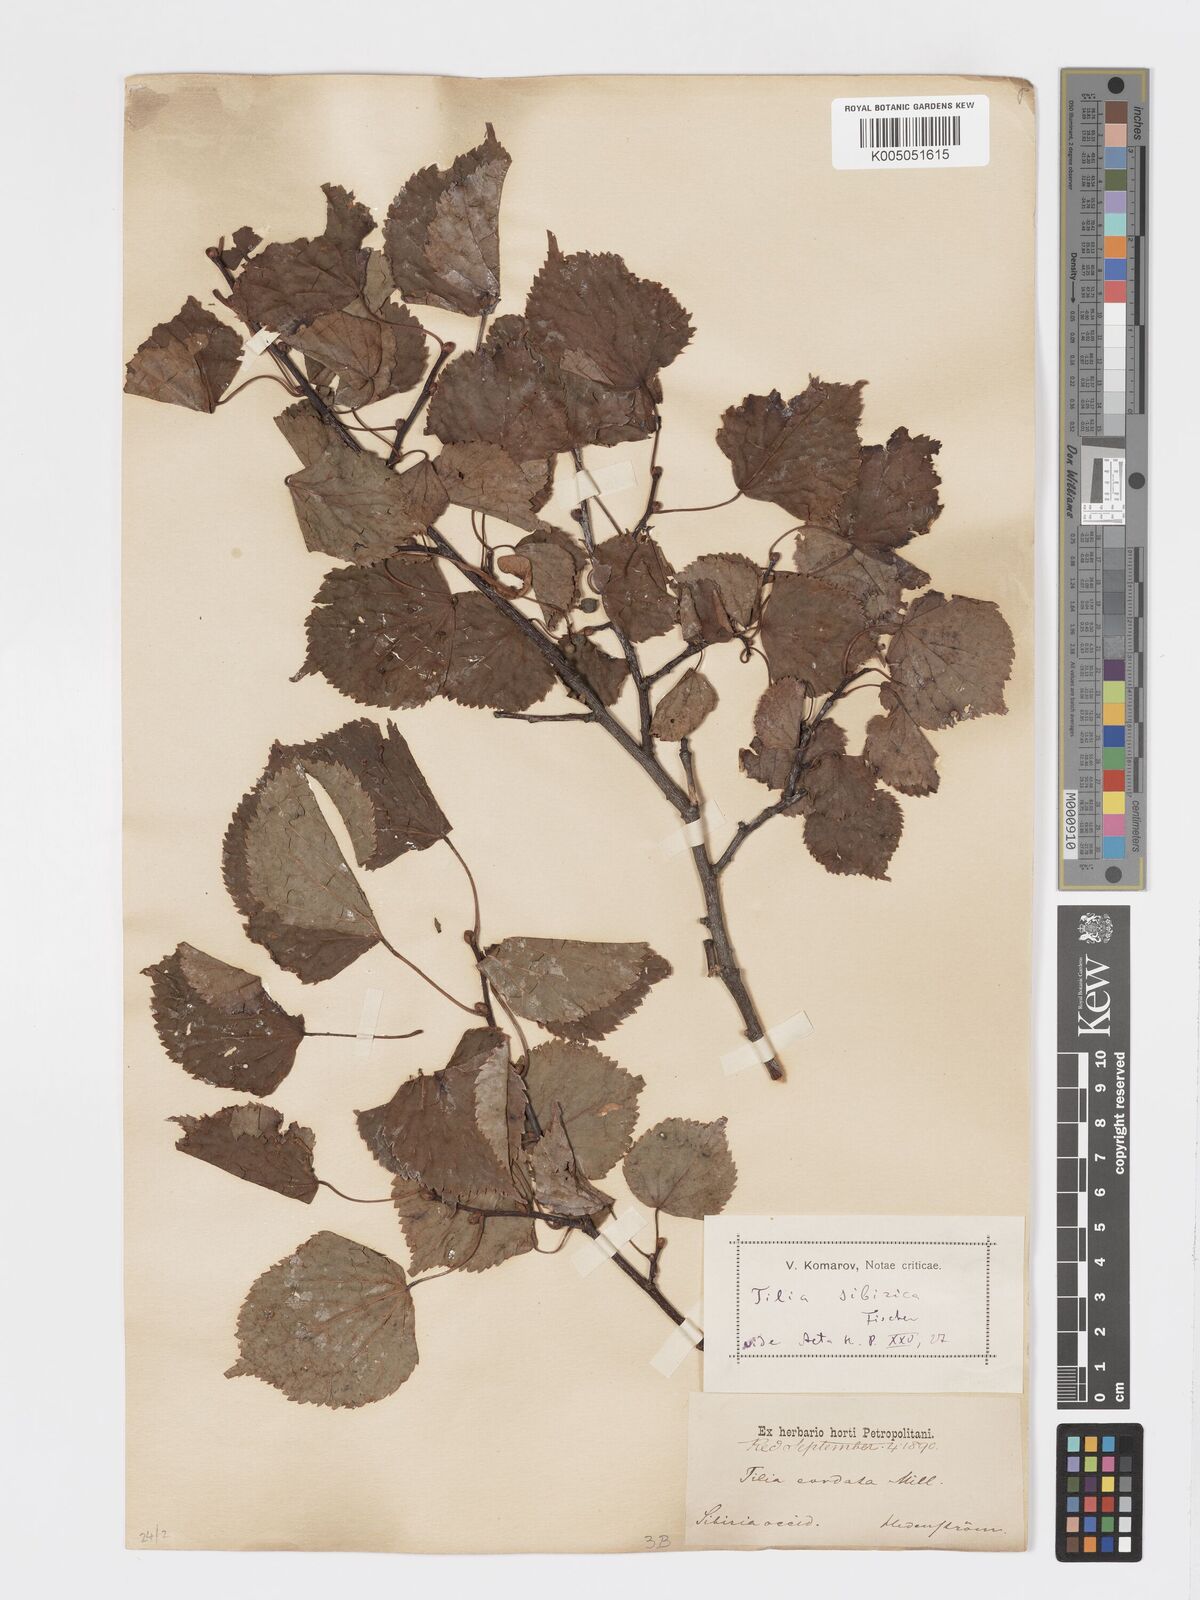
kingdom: Plantae
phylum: Tracheophyta
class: Magnoliopsida
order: Malvales
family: Malvaceae
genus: Tilia
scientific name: Tilia cordata
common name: Small-leaved lime
